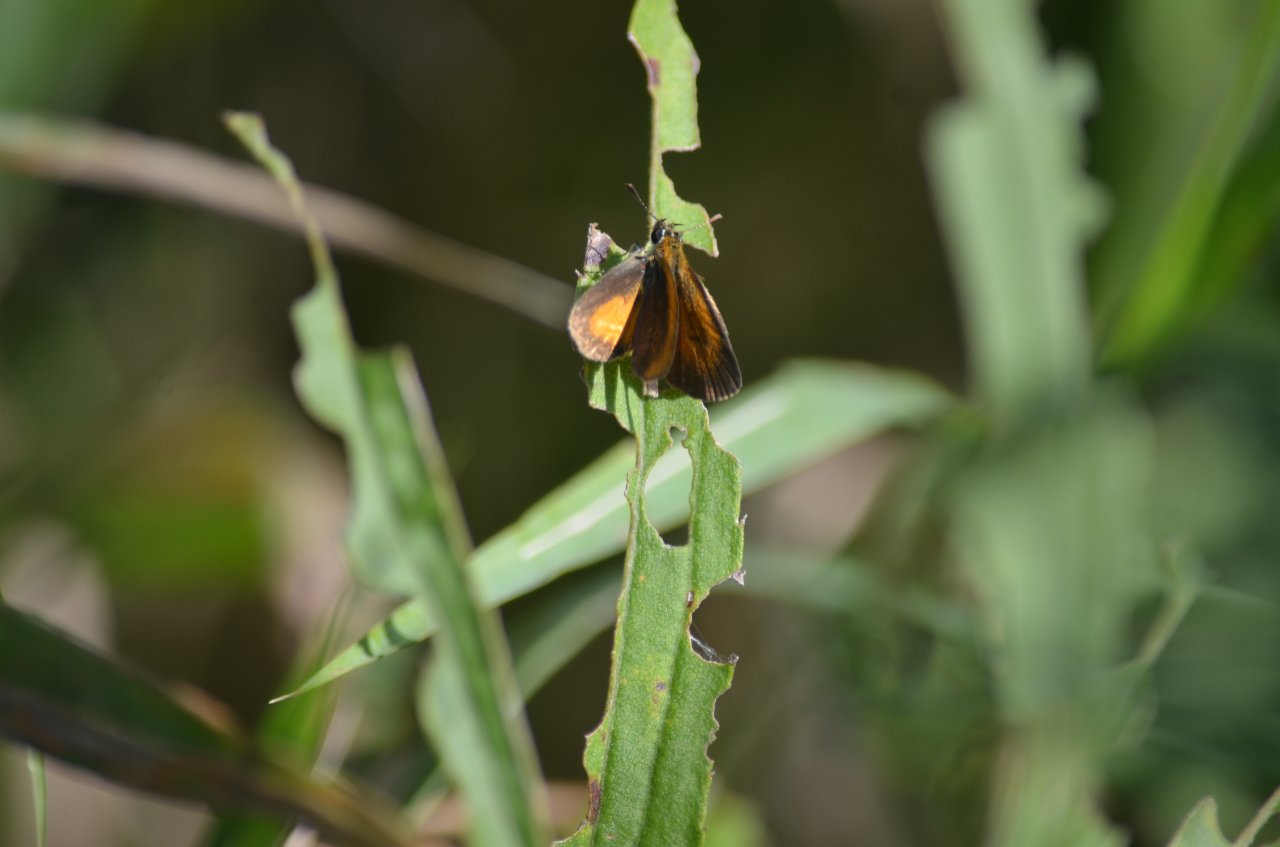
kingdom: Animalia
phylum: Arthropoda
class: Insecta
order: Lepidoptera
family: Hesperiidae
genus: Ancyloxypha
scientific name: Ancyloxypha numitor
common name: Least Skipper
